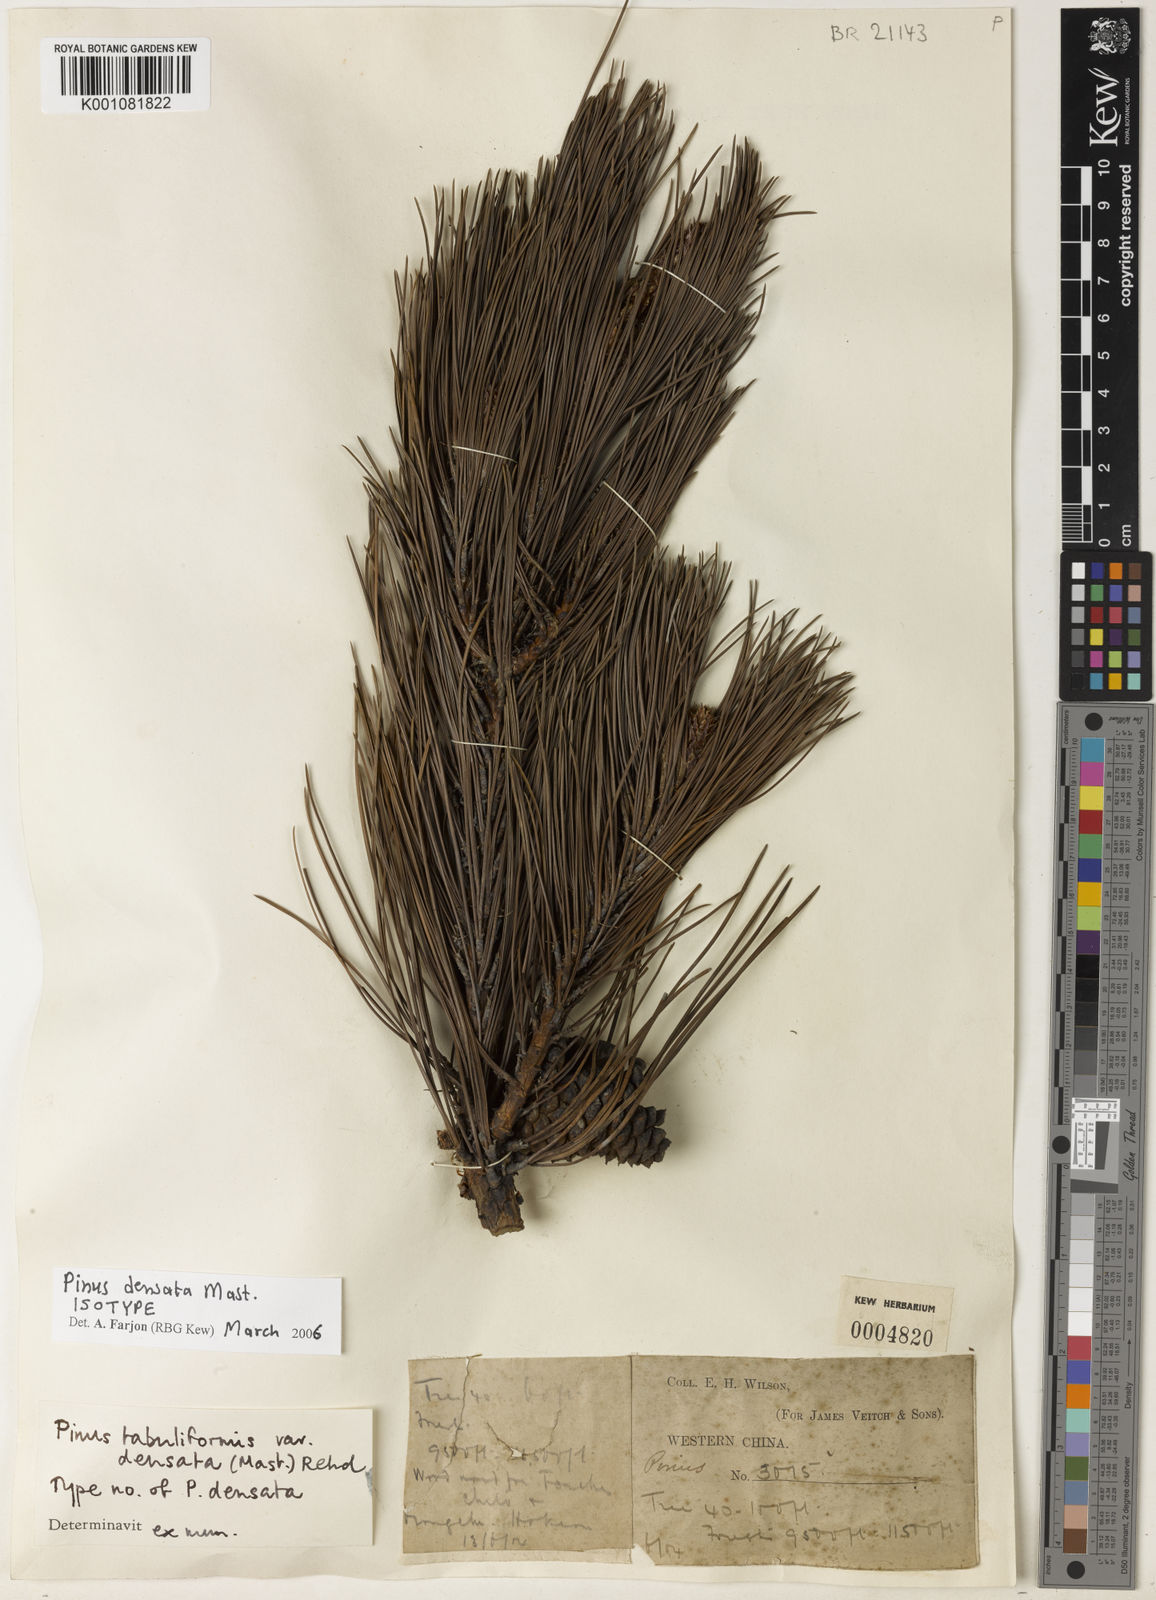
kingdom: Plantae
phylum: Tracheophyta
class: Pinopsida
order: Pinales
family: Pinaceae
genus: Pinus
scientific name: Pinus densata
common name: Gaoshan pine
